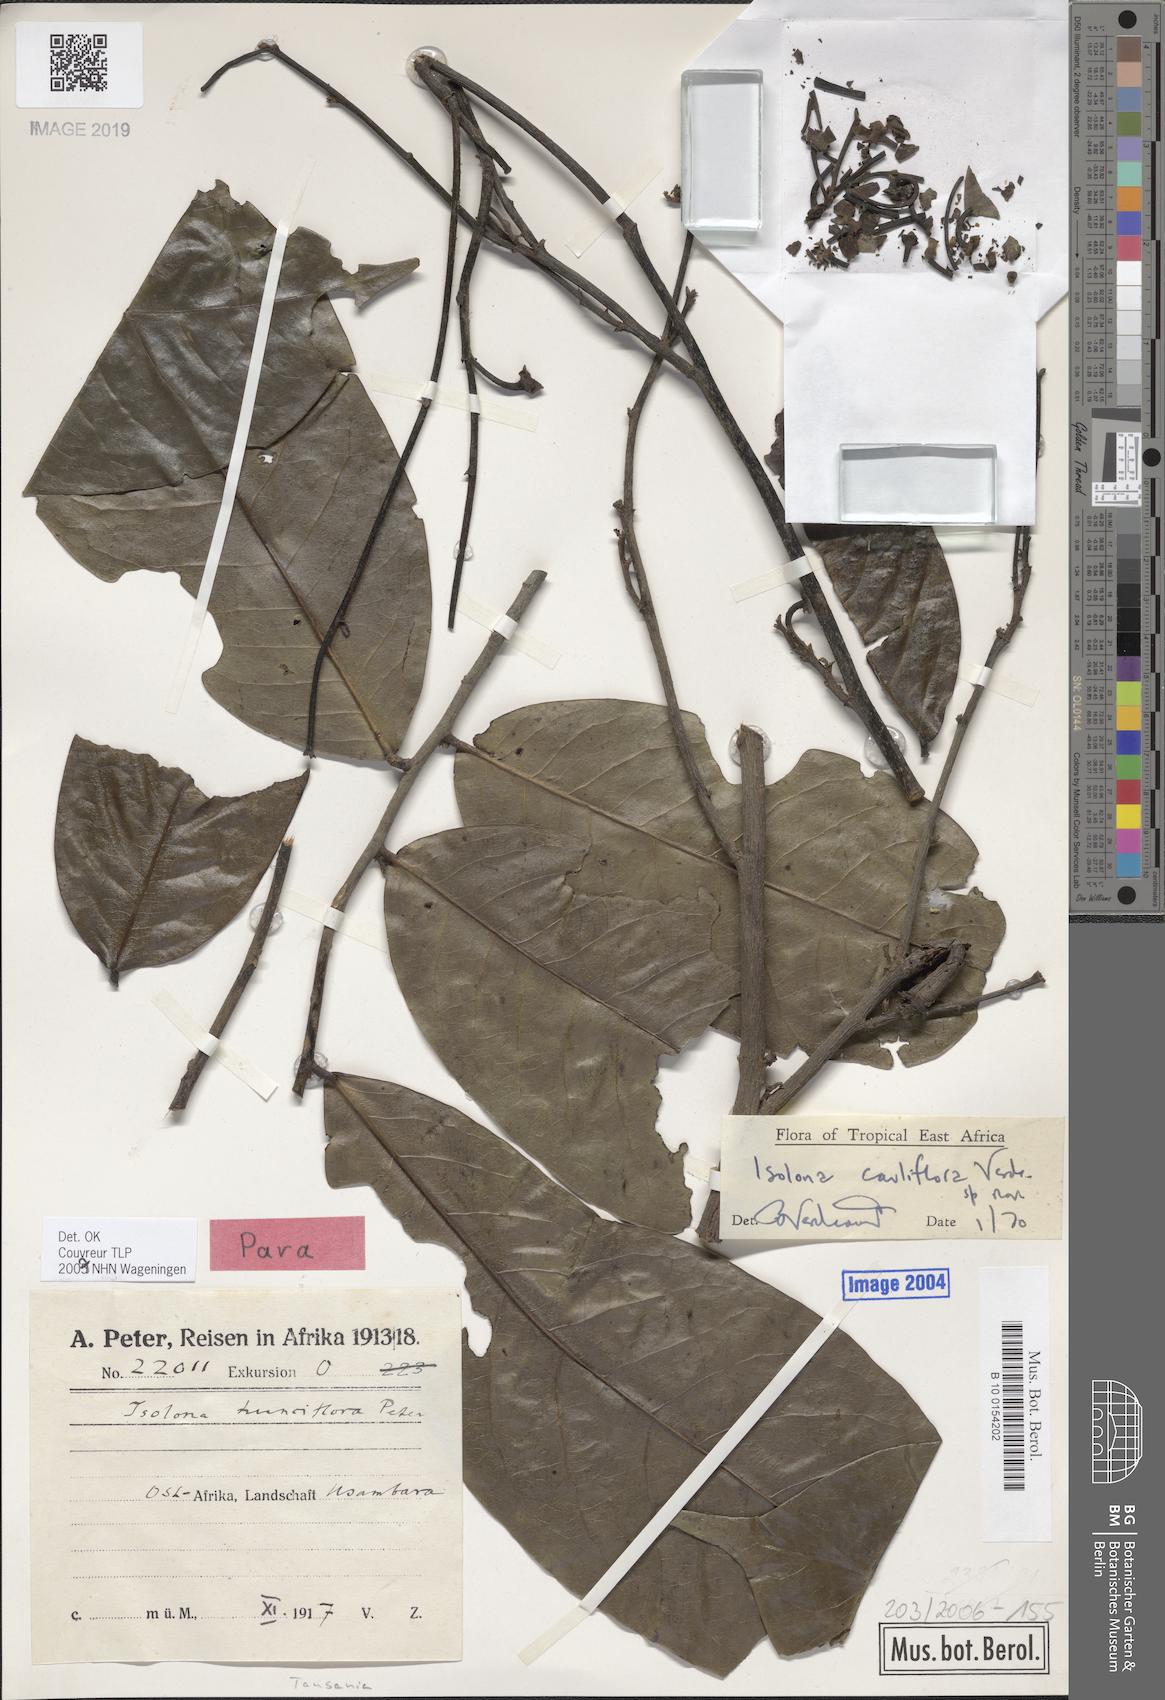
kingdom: Plantae
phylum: Tracheophyta
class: Magnoliopsida
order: Magnoliales
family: Annonaceae
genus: Isolona
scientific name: Isolona cauliflora
